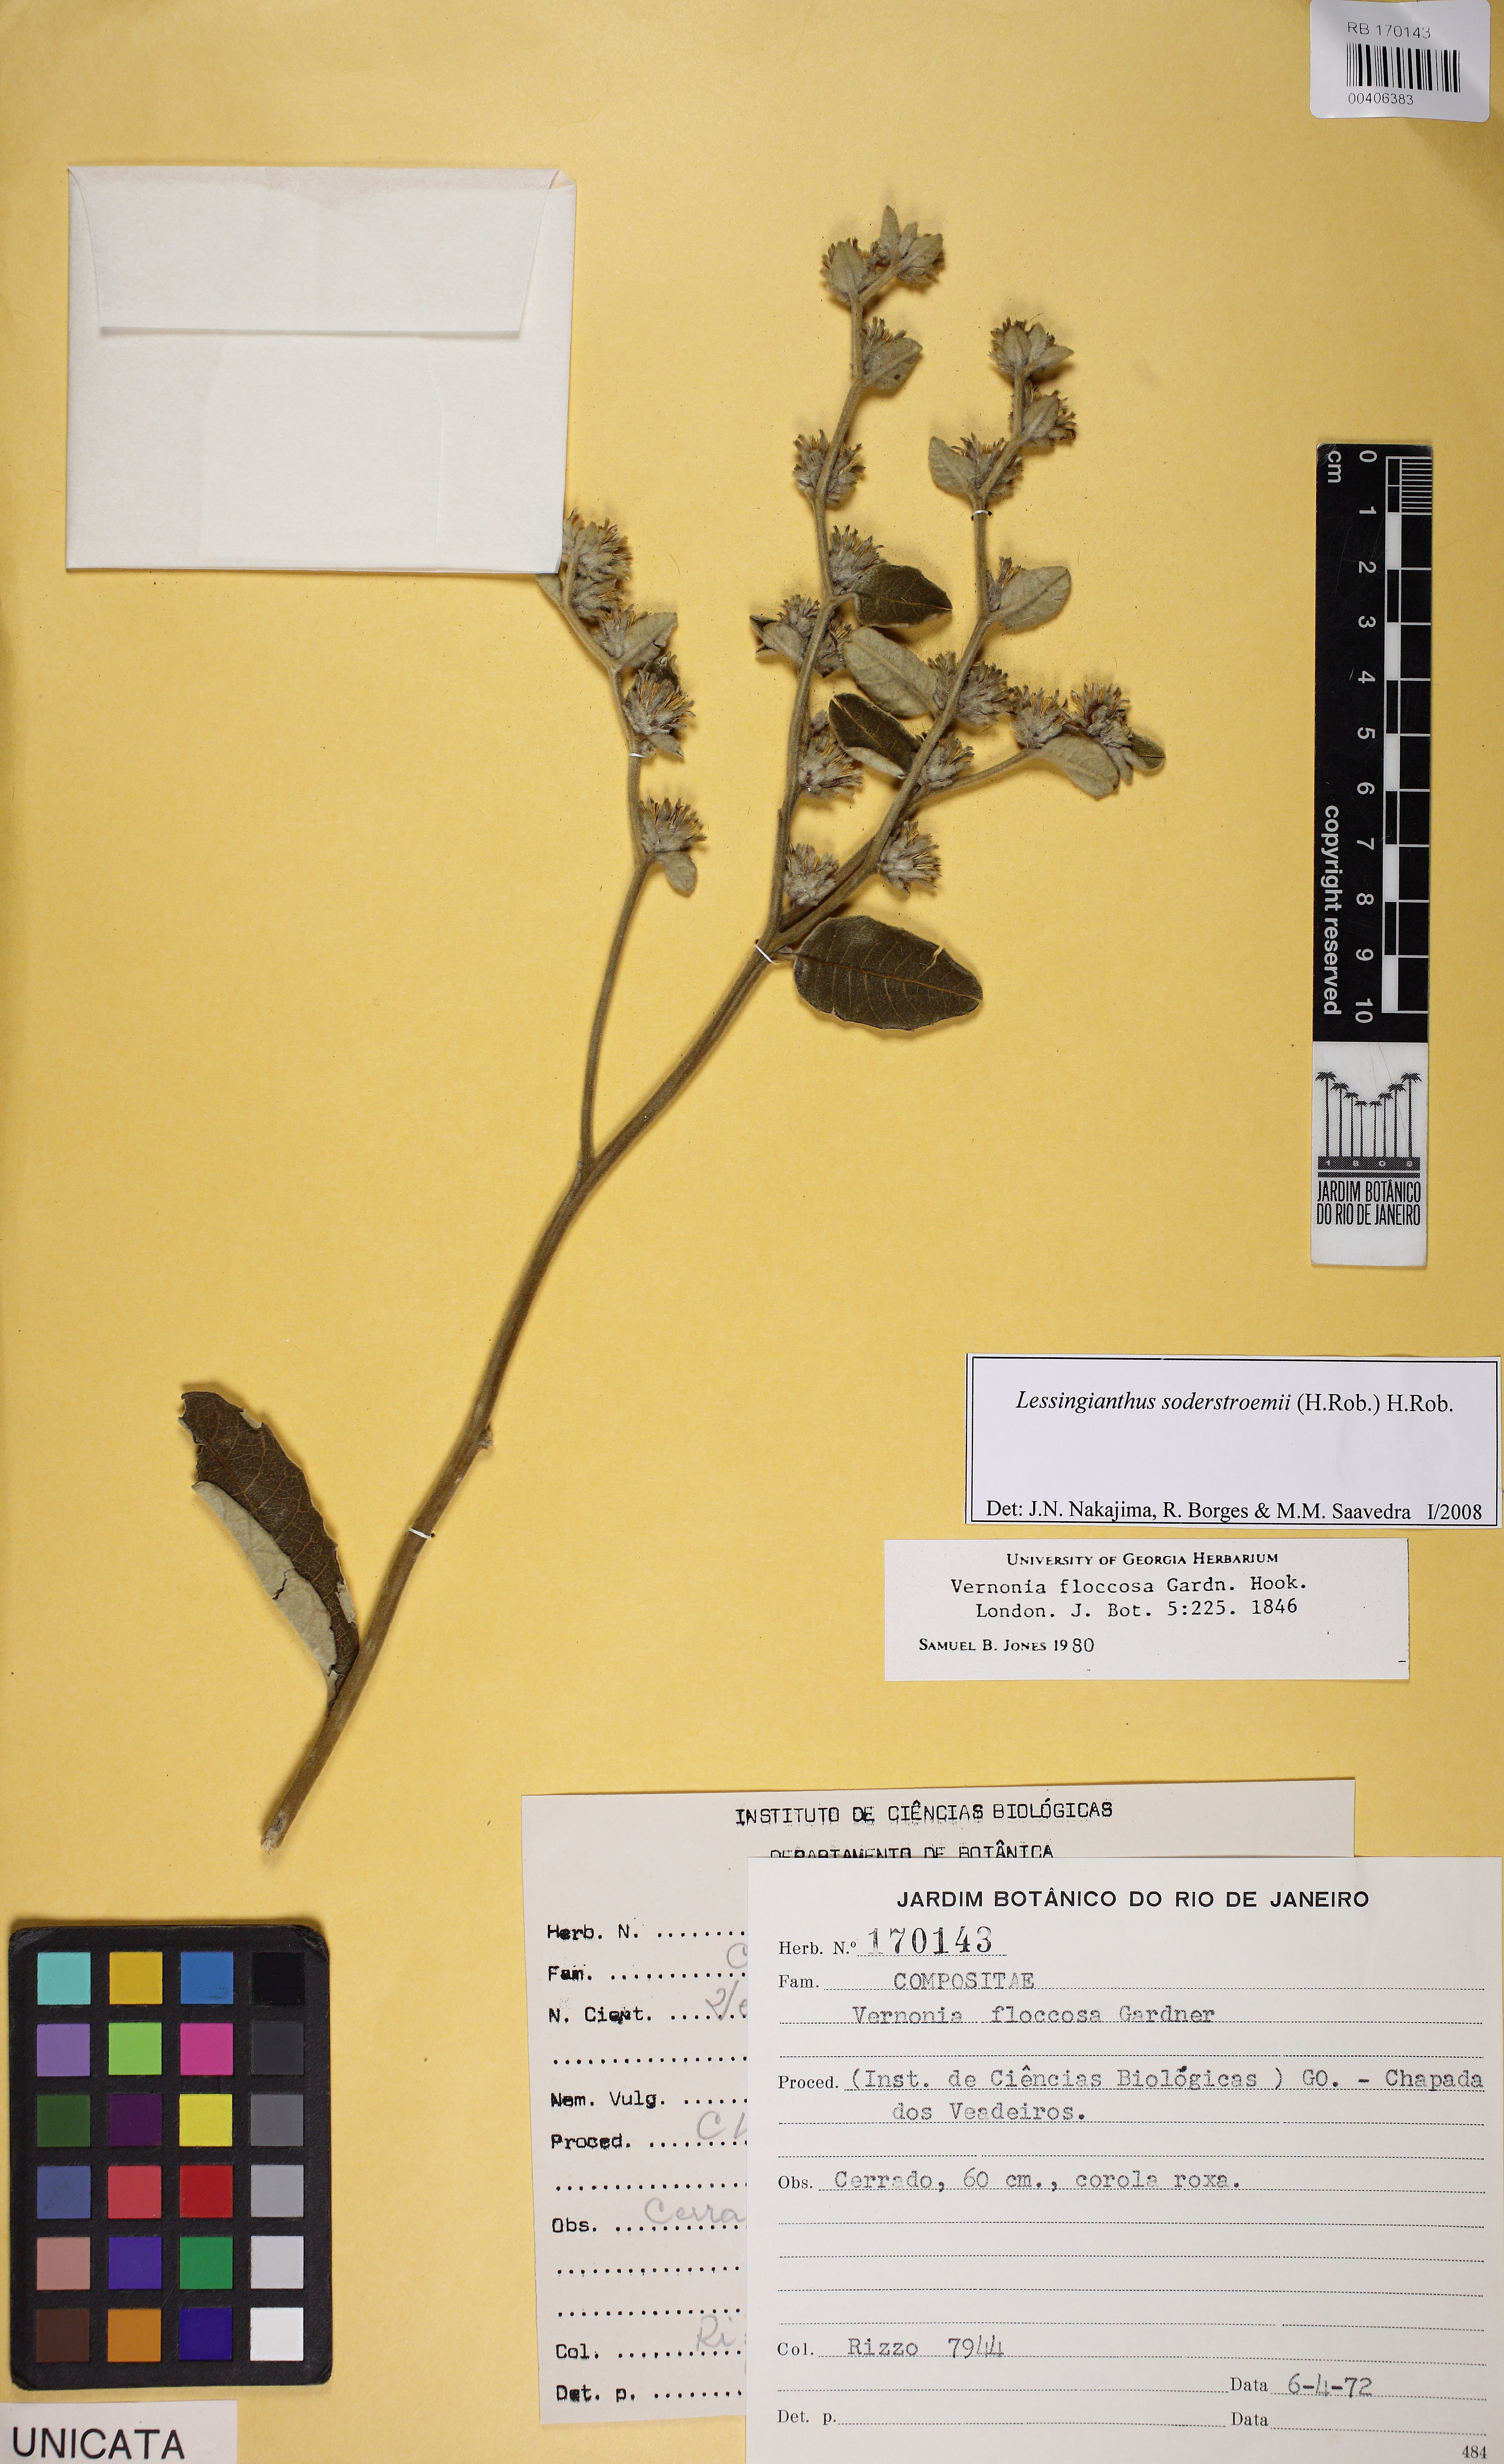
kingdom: Plantae
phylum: Tracheophyta
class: Magnoliopsida
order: Asterales
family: Asteraceae
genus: Lessingianthus
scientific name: Lessingianthus soderstroemii
